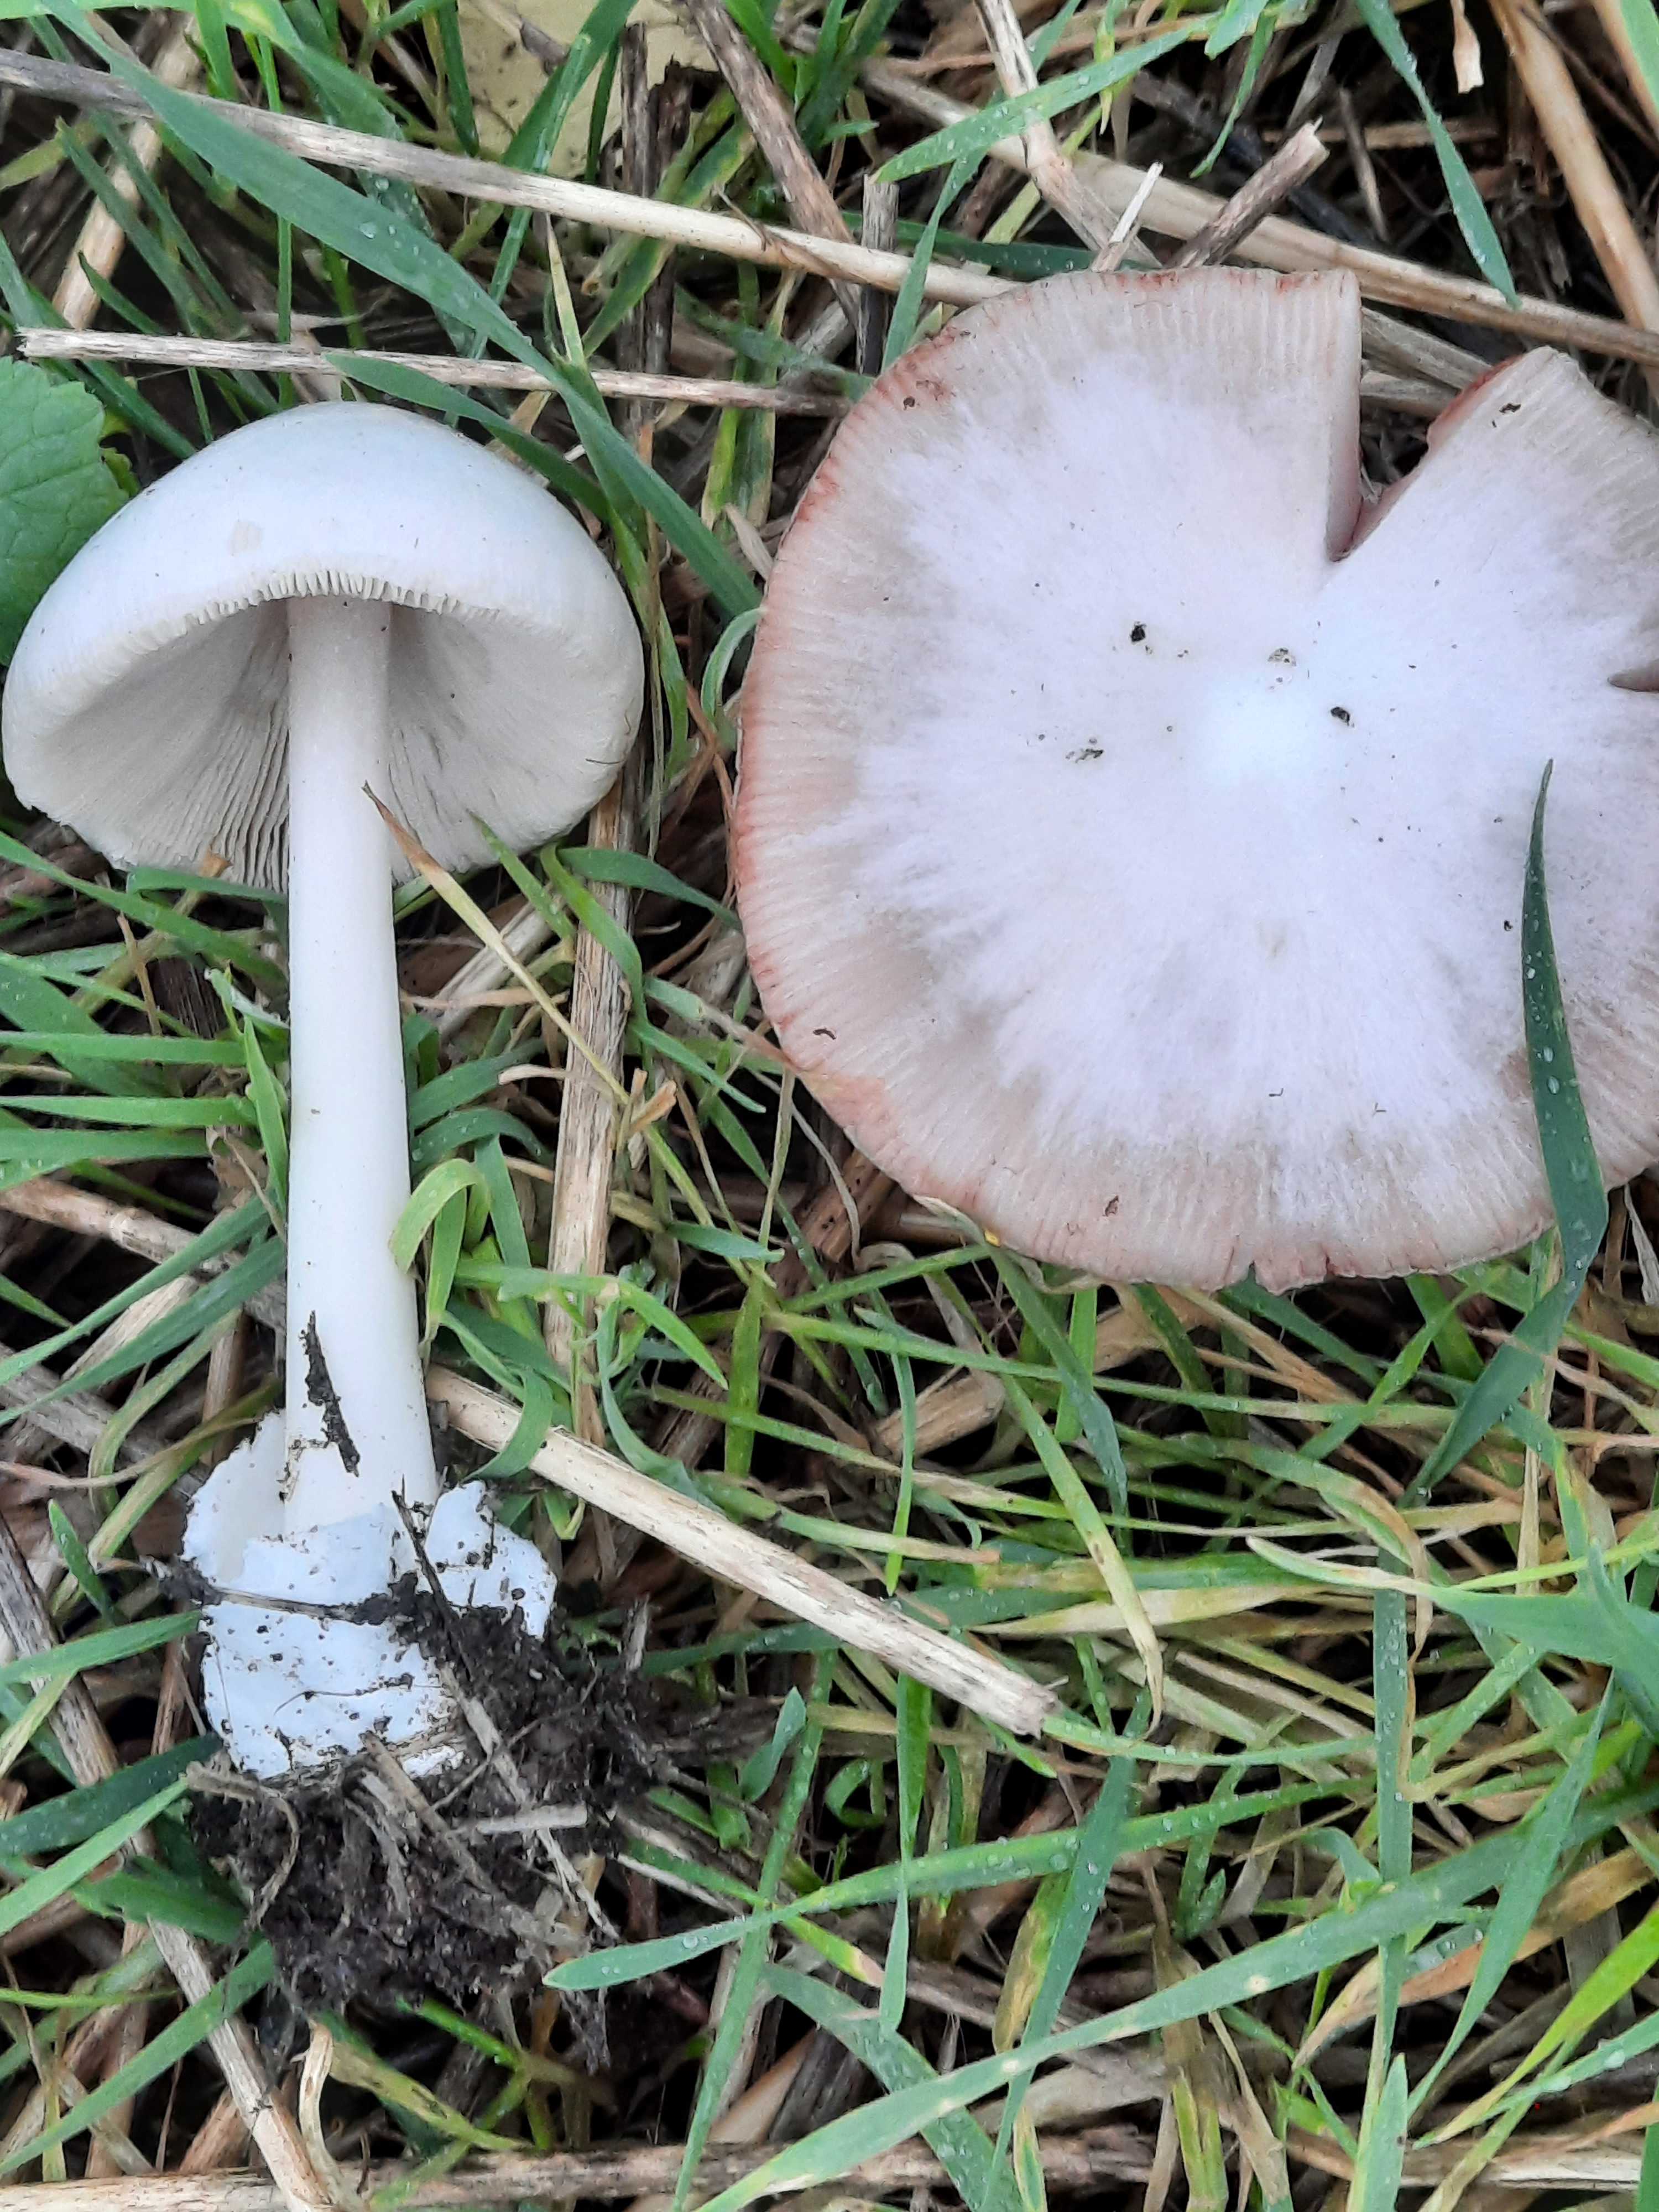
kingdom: Fungi
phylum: Basidiomycota
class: Agaricomycetes
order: Agaricales
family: Pluteaceae
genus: Volvopluteus
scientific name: Volvopluteus gloiocephalus
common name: høj posesvamp
